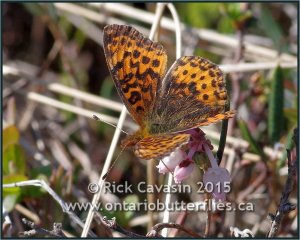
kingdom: Animalia
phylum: Arthropoda
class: Insecta
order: Lepidoptera
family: Nymphalidae
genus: Clossiana
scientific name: Clossiana toddi
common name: Meadow Fritillary
